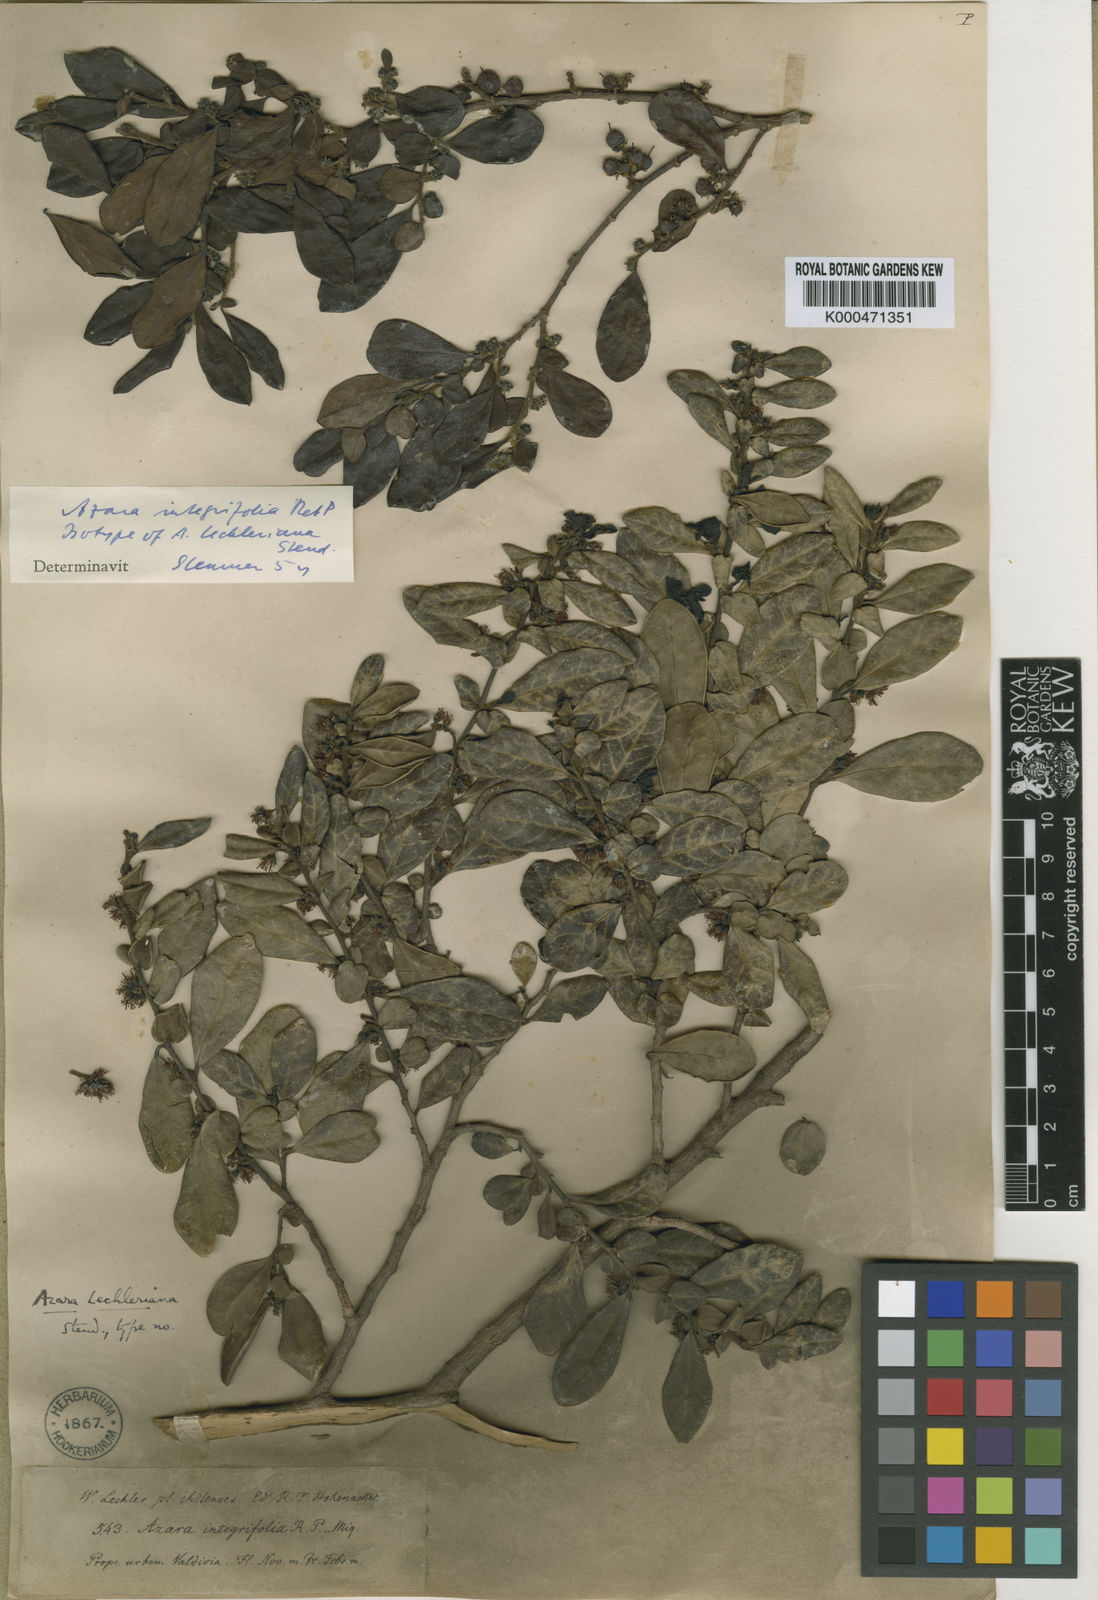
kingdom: Plantae
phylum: Tracheophyta
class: Magnoliopsida
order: Malpighiales
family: Salicaceae
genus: Azara
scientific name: Azara integrifolia
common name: Goldspire
